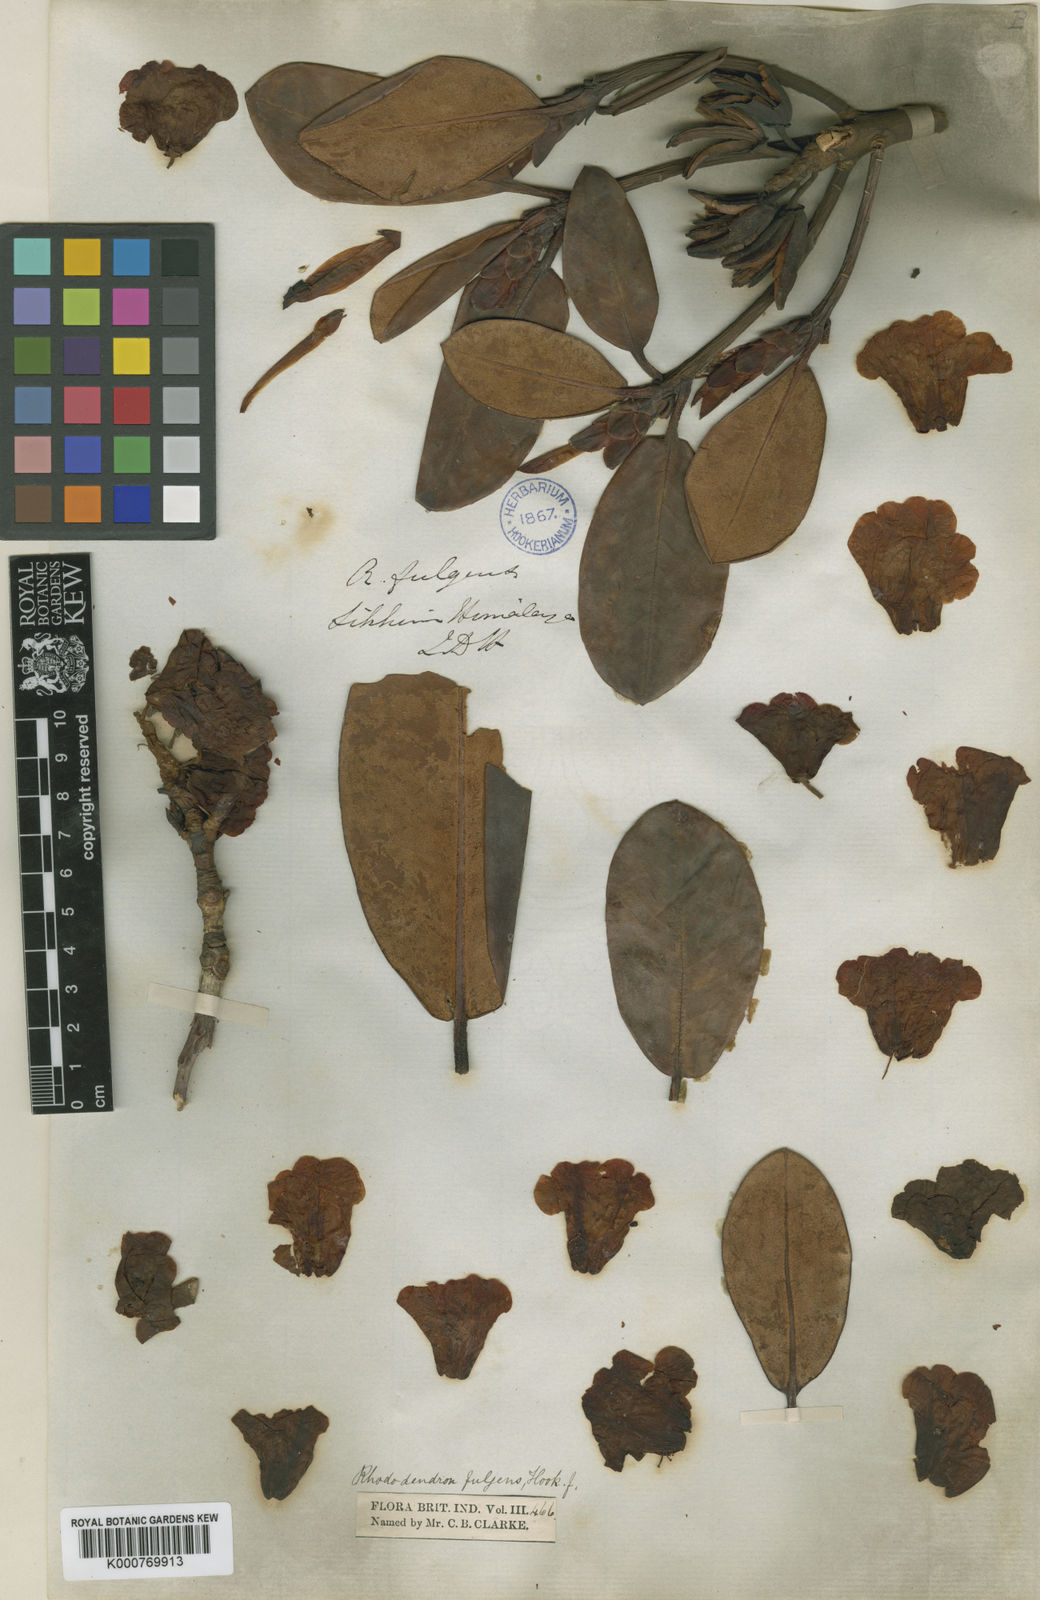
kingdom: Plantae
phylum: Tracheophyta
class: Magnoliopsida
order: Ericales
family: Ericaceae
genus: Rhododendron
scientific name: Rhododendron
